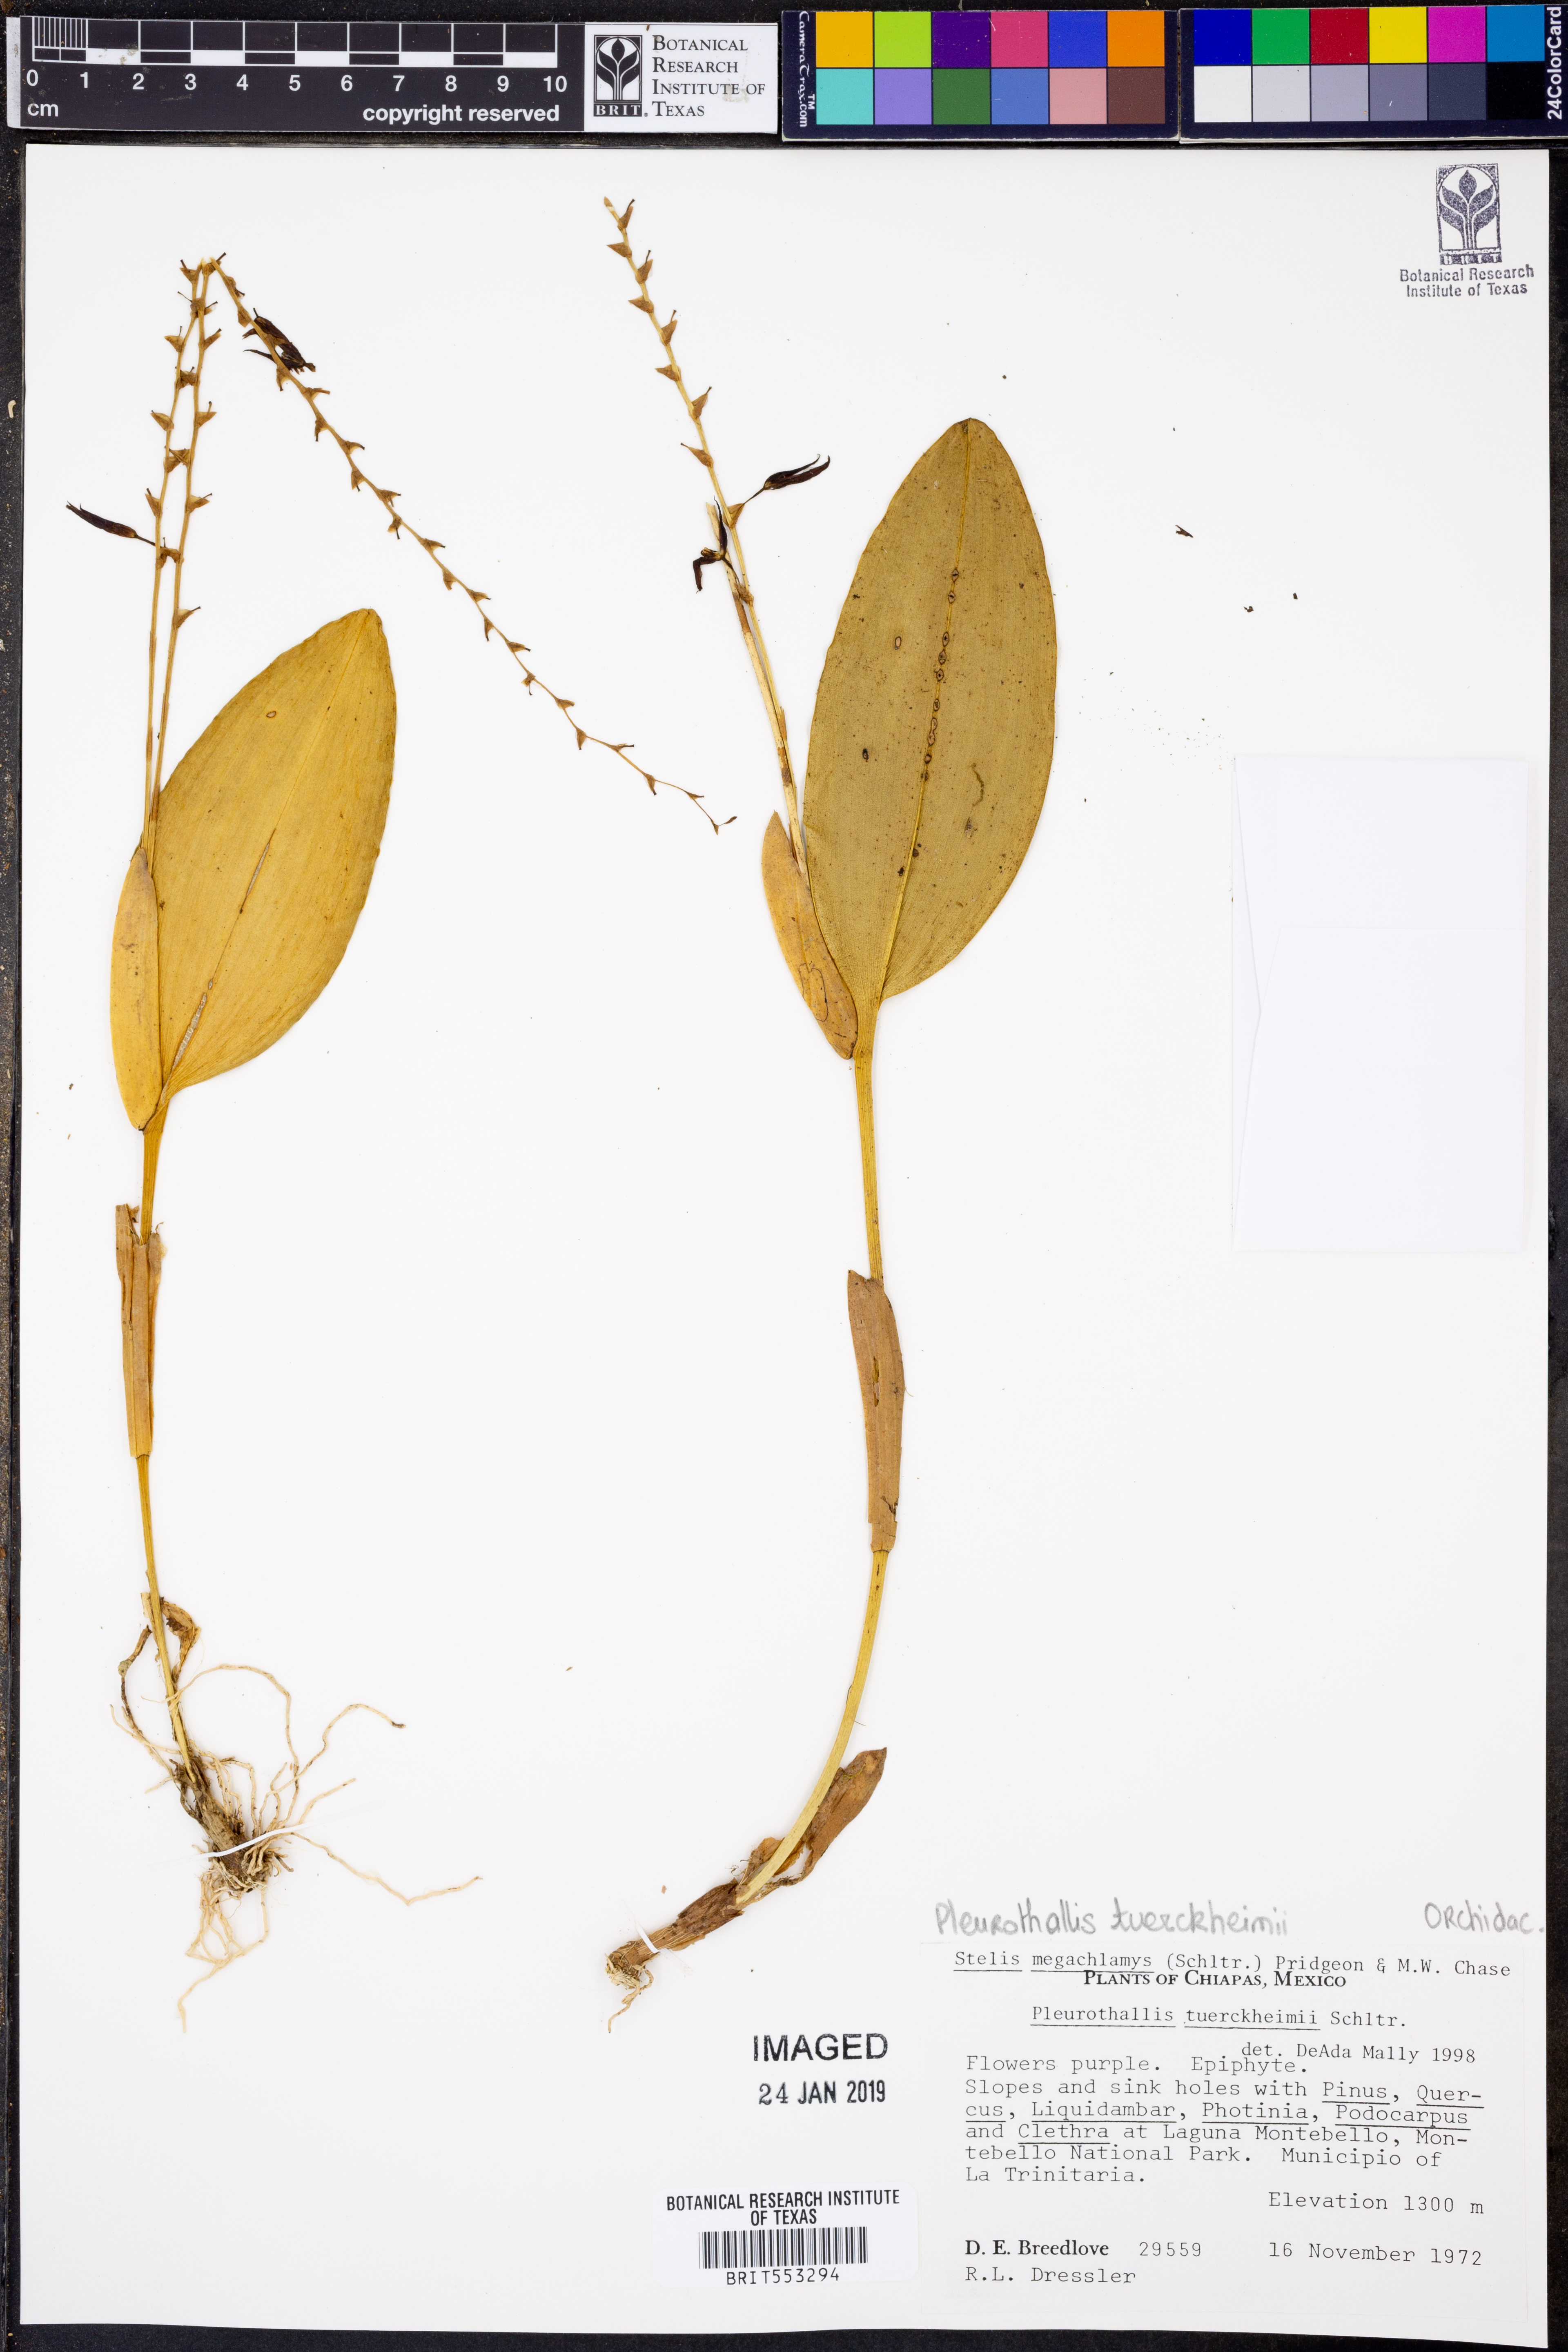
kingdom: Plantae
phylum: Tracheophyta
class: Liliopsida
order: Asparagales
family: Orchidaceae
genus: Stelis
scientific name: Stelis megachlamys
